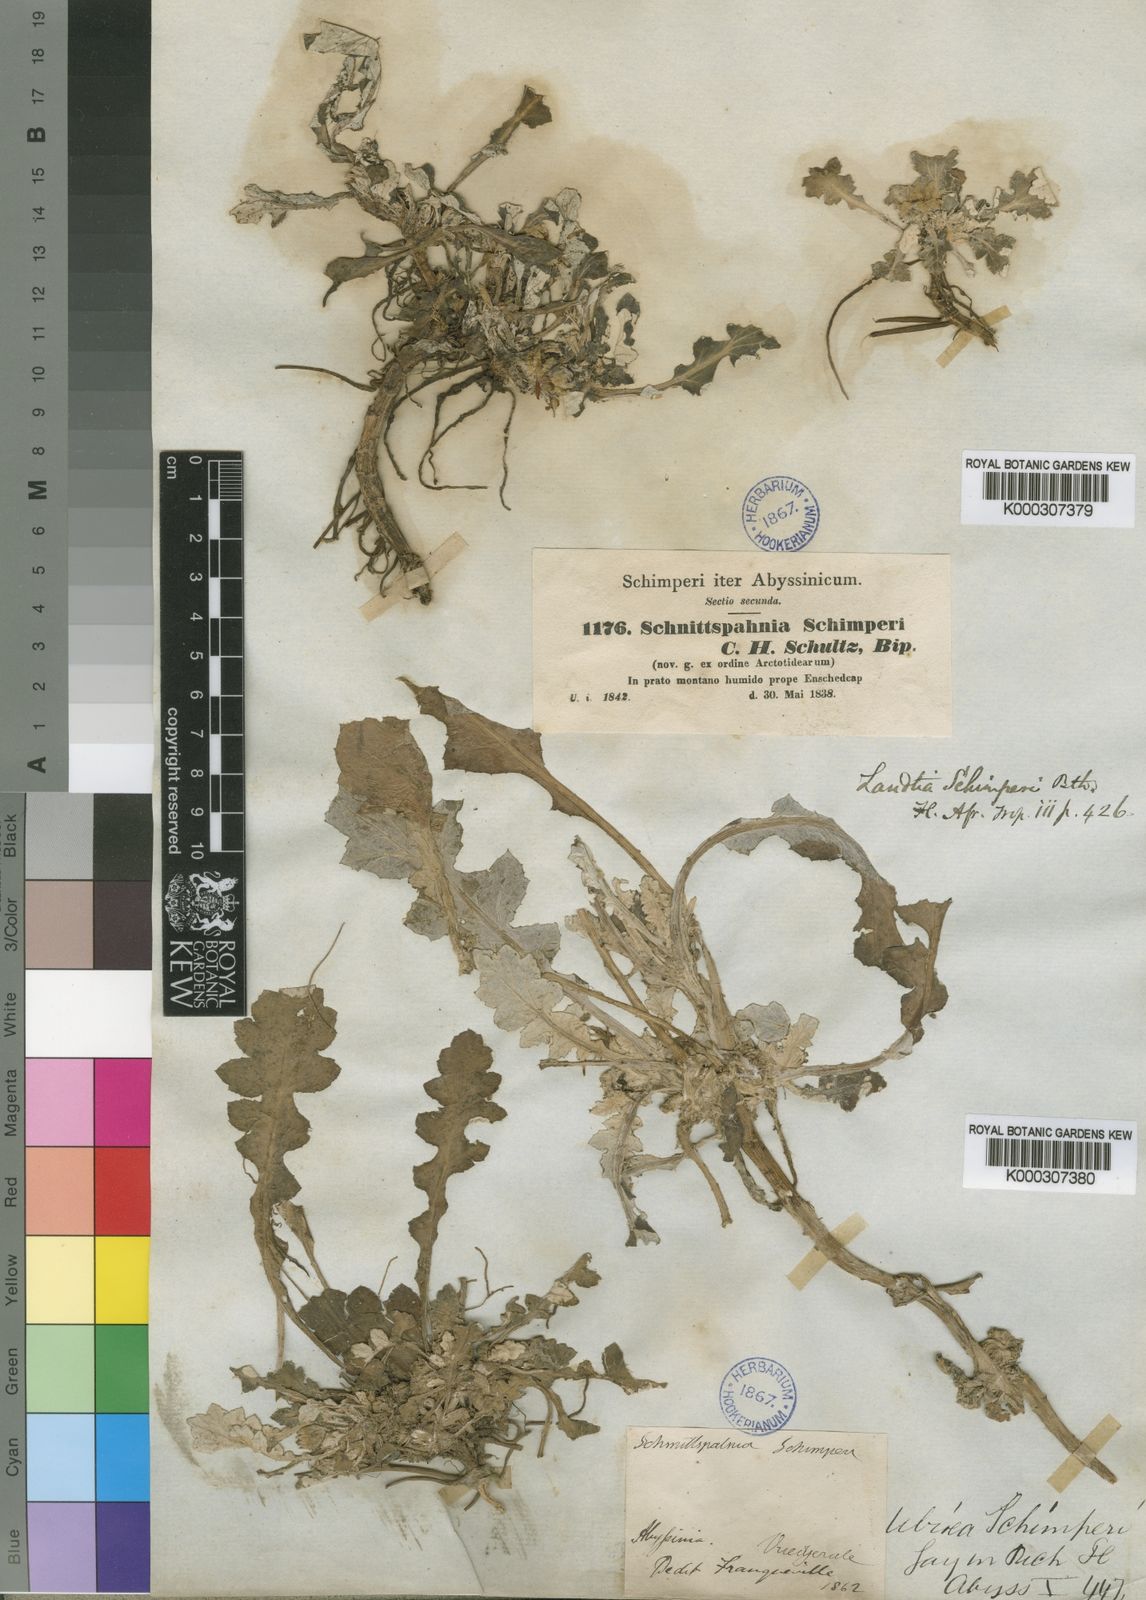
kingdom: Plantae
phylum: Tracheophyta
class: Magnoliopsida
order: Asterales
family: Asteraceae
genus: Haplocarpha
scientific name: Haplocarpha schimperi
